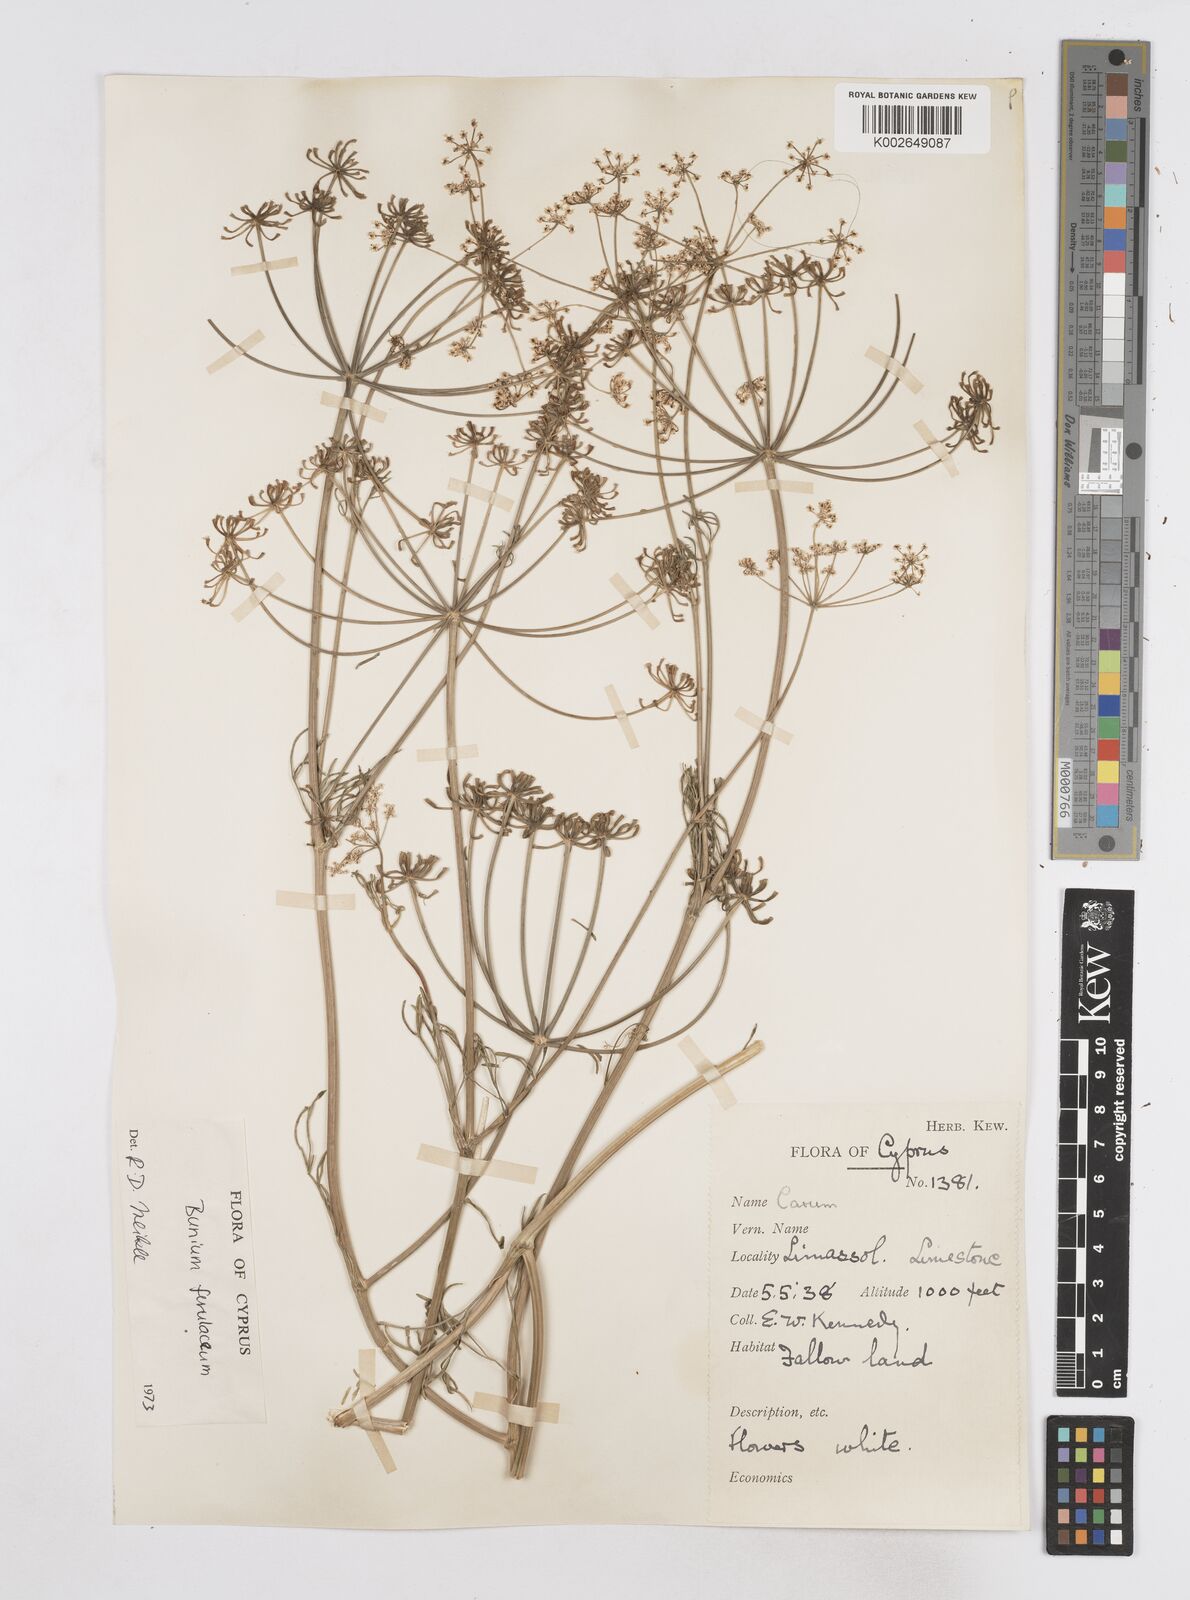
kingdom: Plantae
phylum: Tracheophyta
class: Magnoliopsida
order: Apiales
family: Apiaceae
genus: Bunium
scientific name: Bunium ferulaceum
